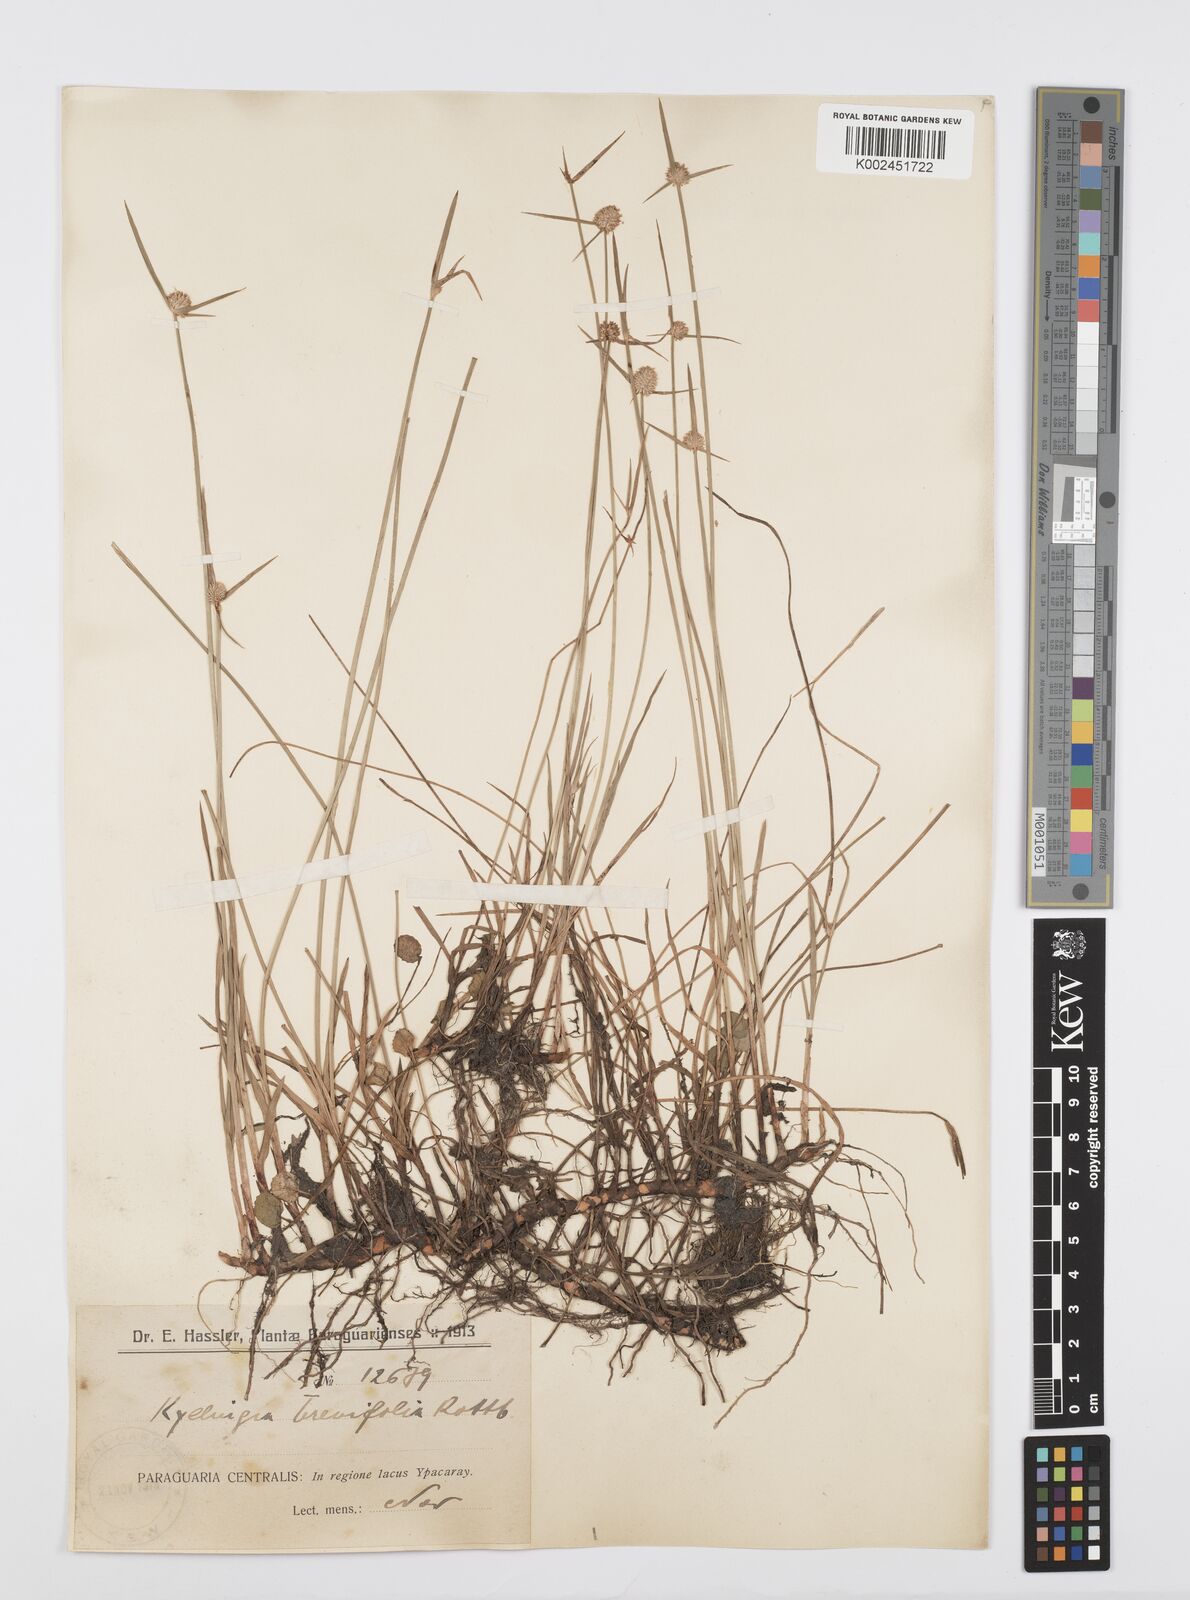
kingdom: Plantae
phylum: Tracheophyta
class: Liliopsida
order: Poales
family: Cyperaceae
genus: Cyperus
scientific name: Cyperus brevifolius
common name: Globe kyllinga
